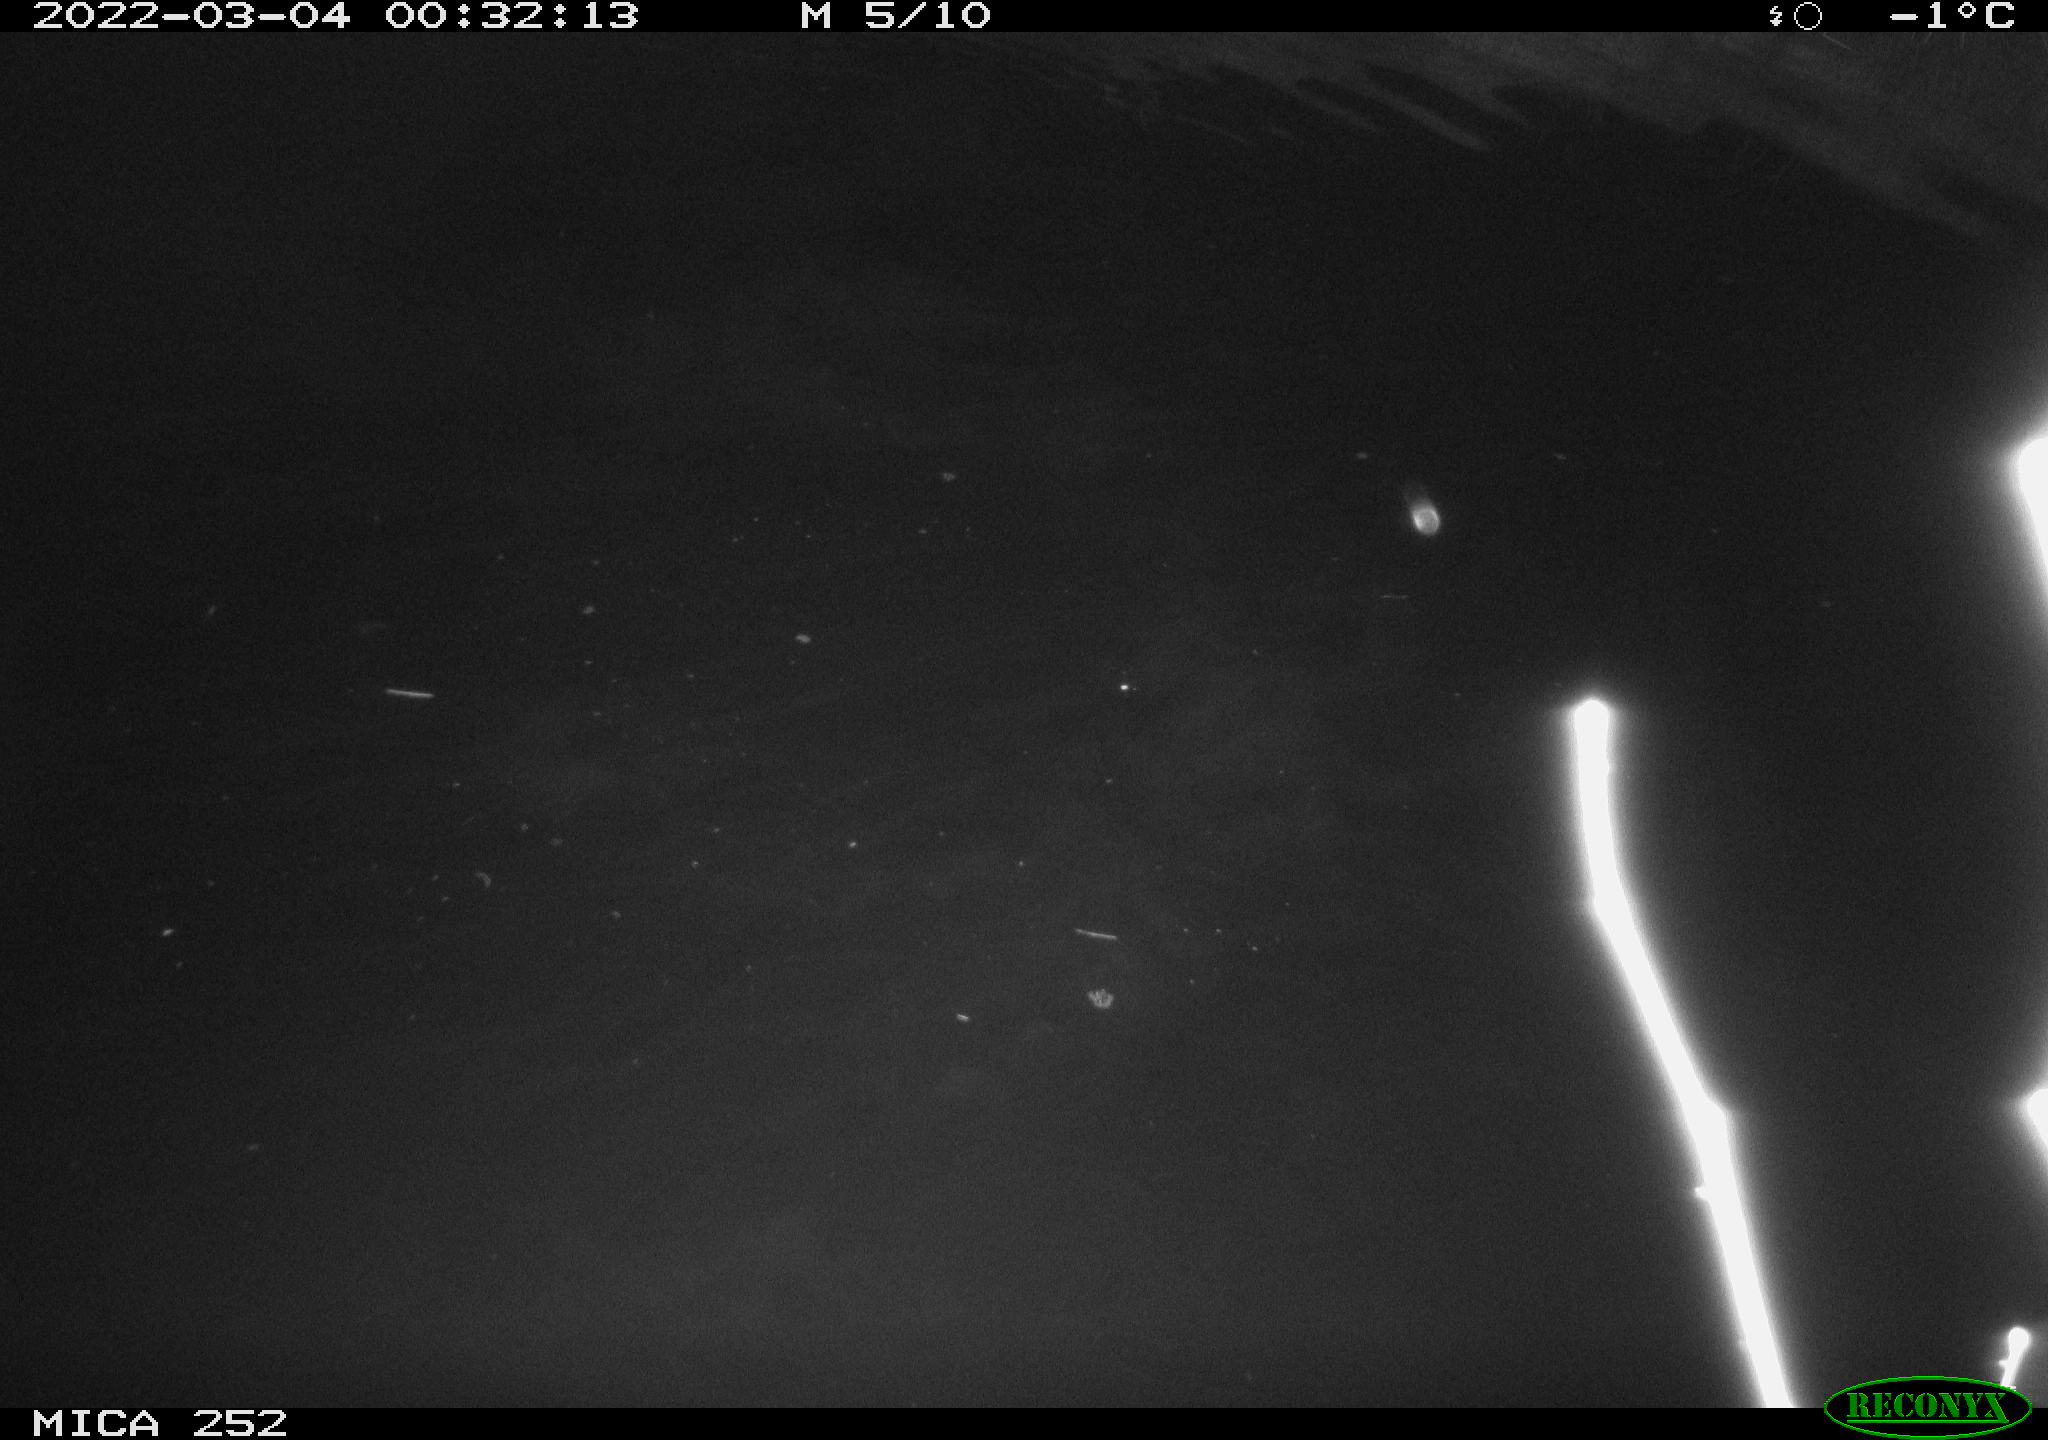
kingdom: Animalia
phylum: Chordata
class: Mammalia
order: Rodentia
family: Castoridae
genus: Castor
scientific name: Castor fiber
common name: Eurasian beaver
